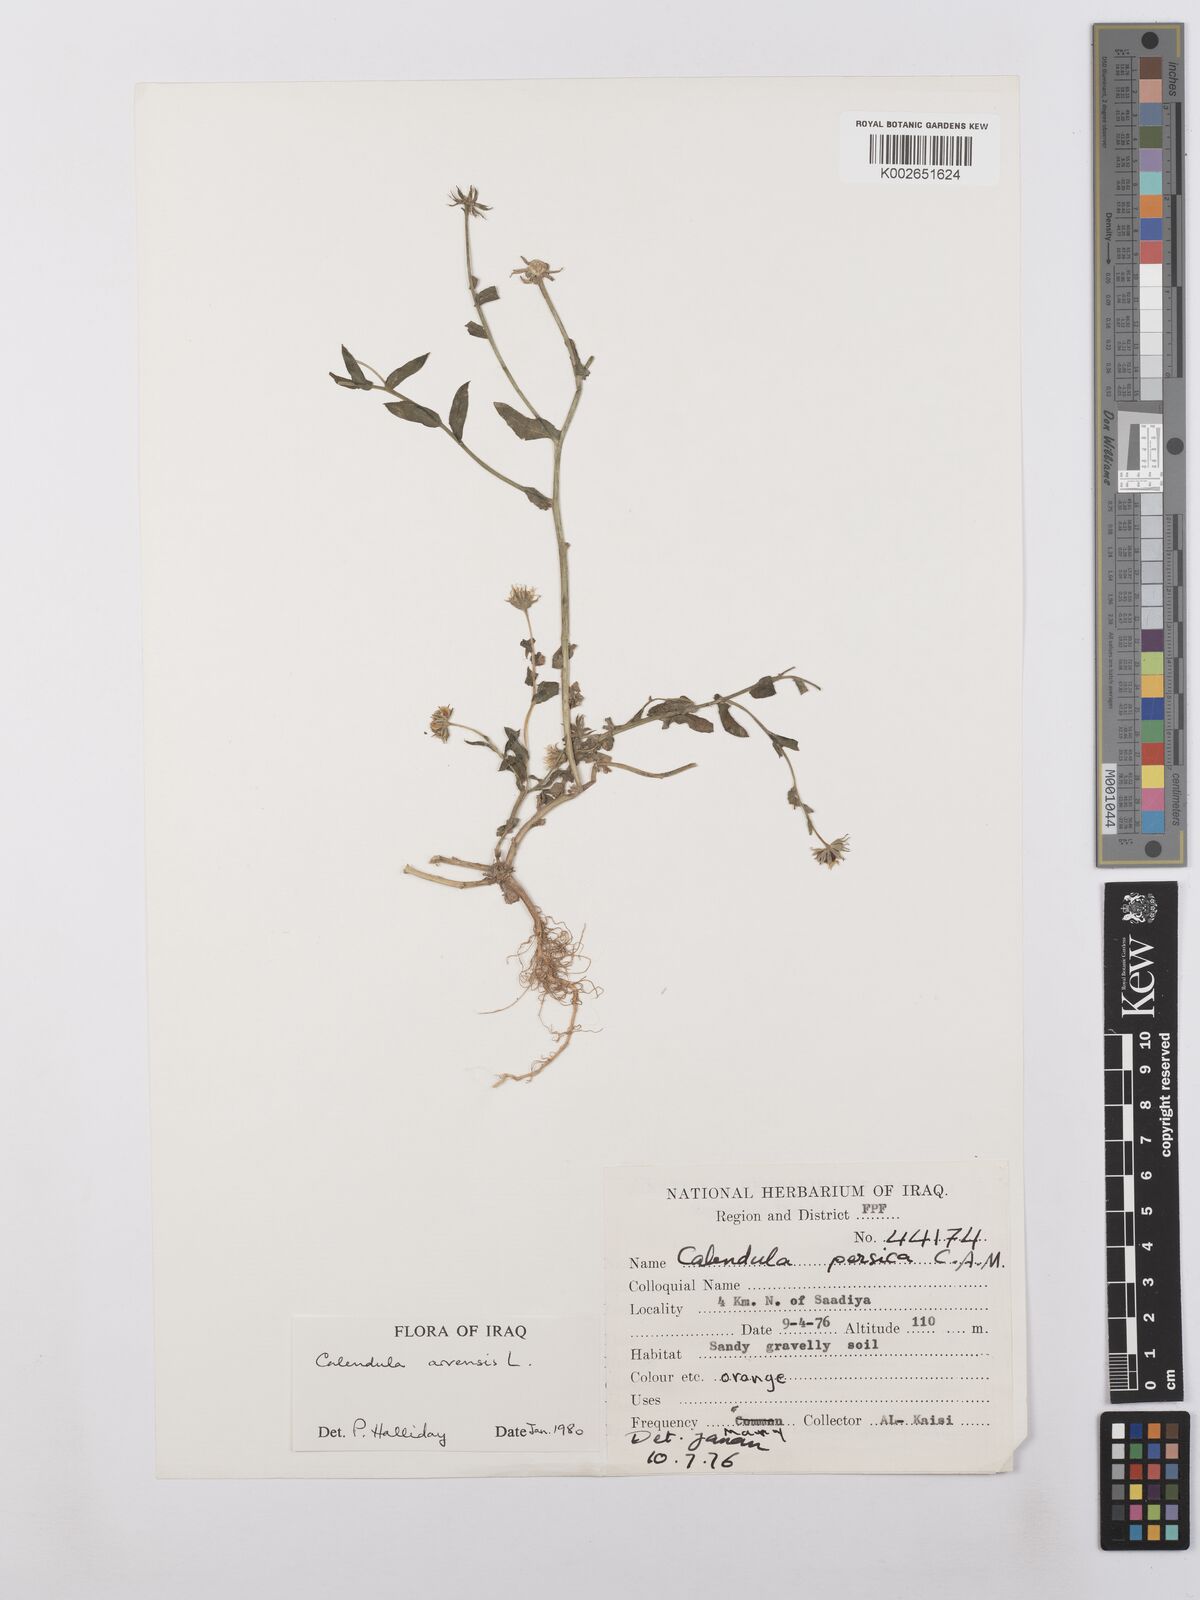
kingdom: Plantae
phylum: Tracheophyta
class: Magnoliopsida
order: Asterales
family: Asteraceae
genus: Calendula
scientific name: Calendula arvensis
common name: Field marigold
